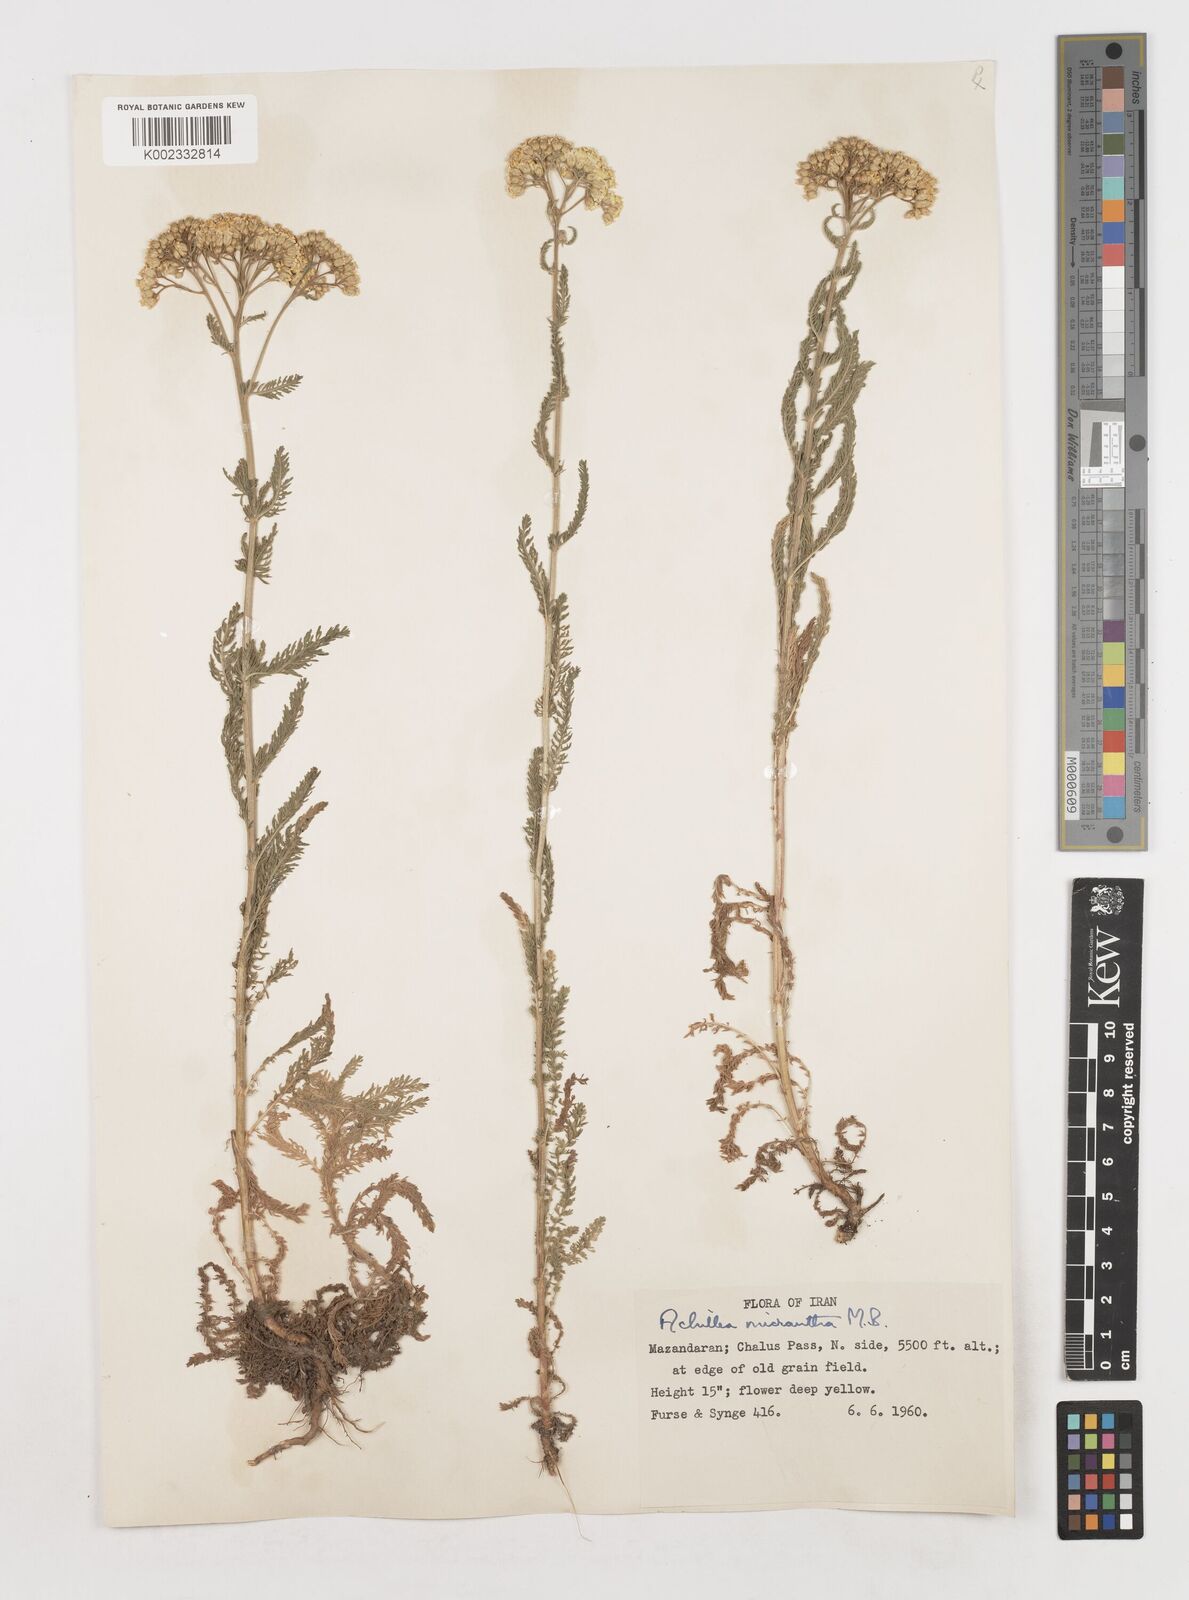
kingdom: Plantae
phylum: Tracheophyta
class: Magnoliopsida
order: Asterales
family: Asteraceae
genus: Achillea
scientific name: Achillea arabica
